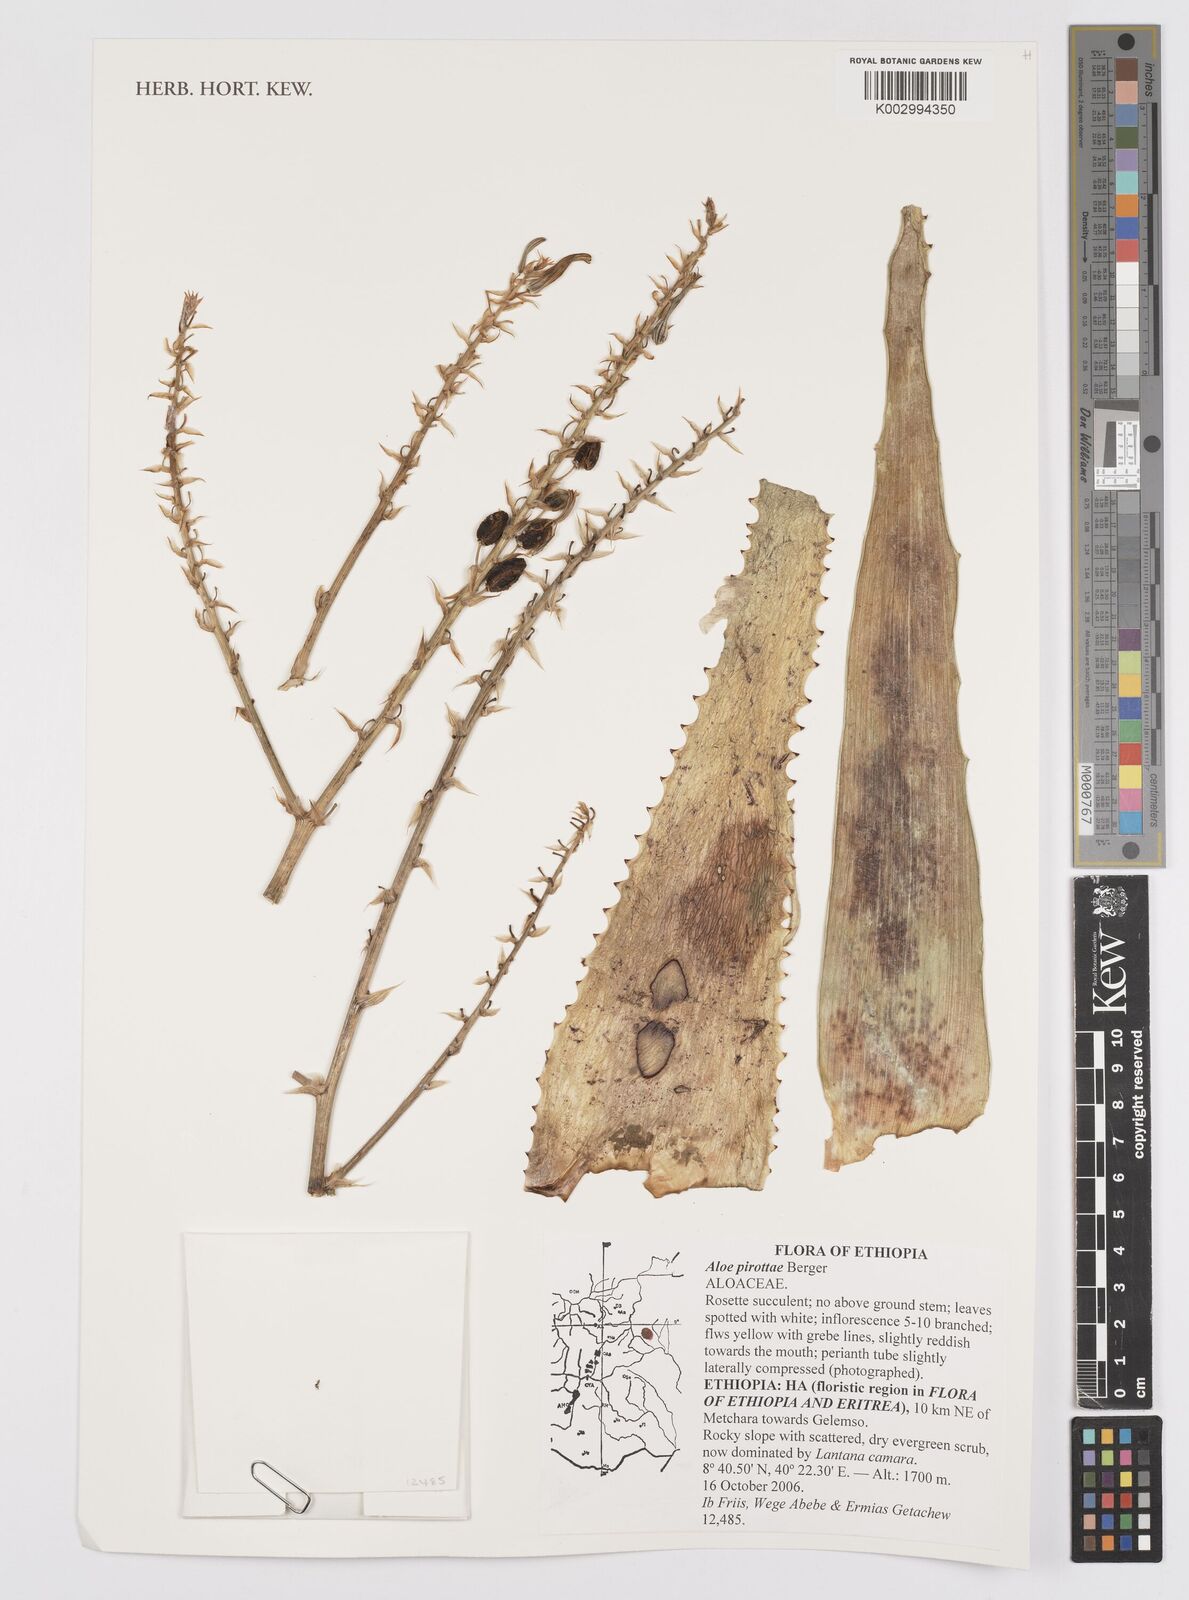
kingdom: Plantae
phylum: Tracheophyta
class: Liliopsida
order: Asparagales
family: Asphodelaceae
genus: Aloe
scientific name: Aloe pirottae
